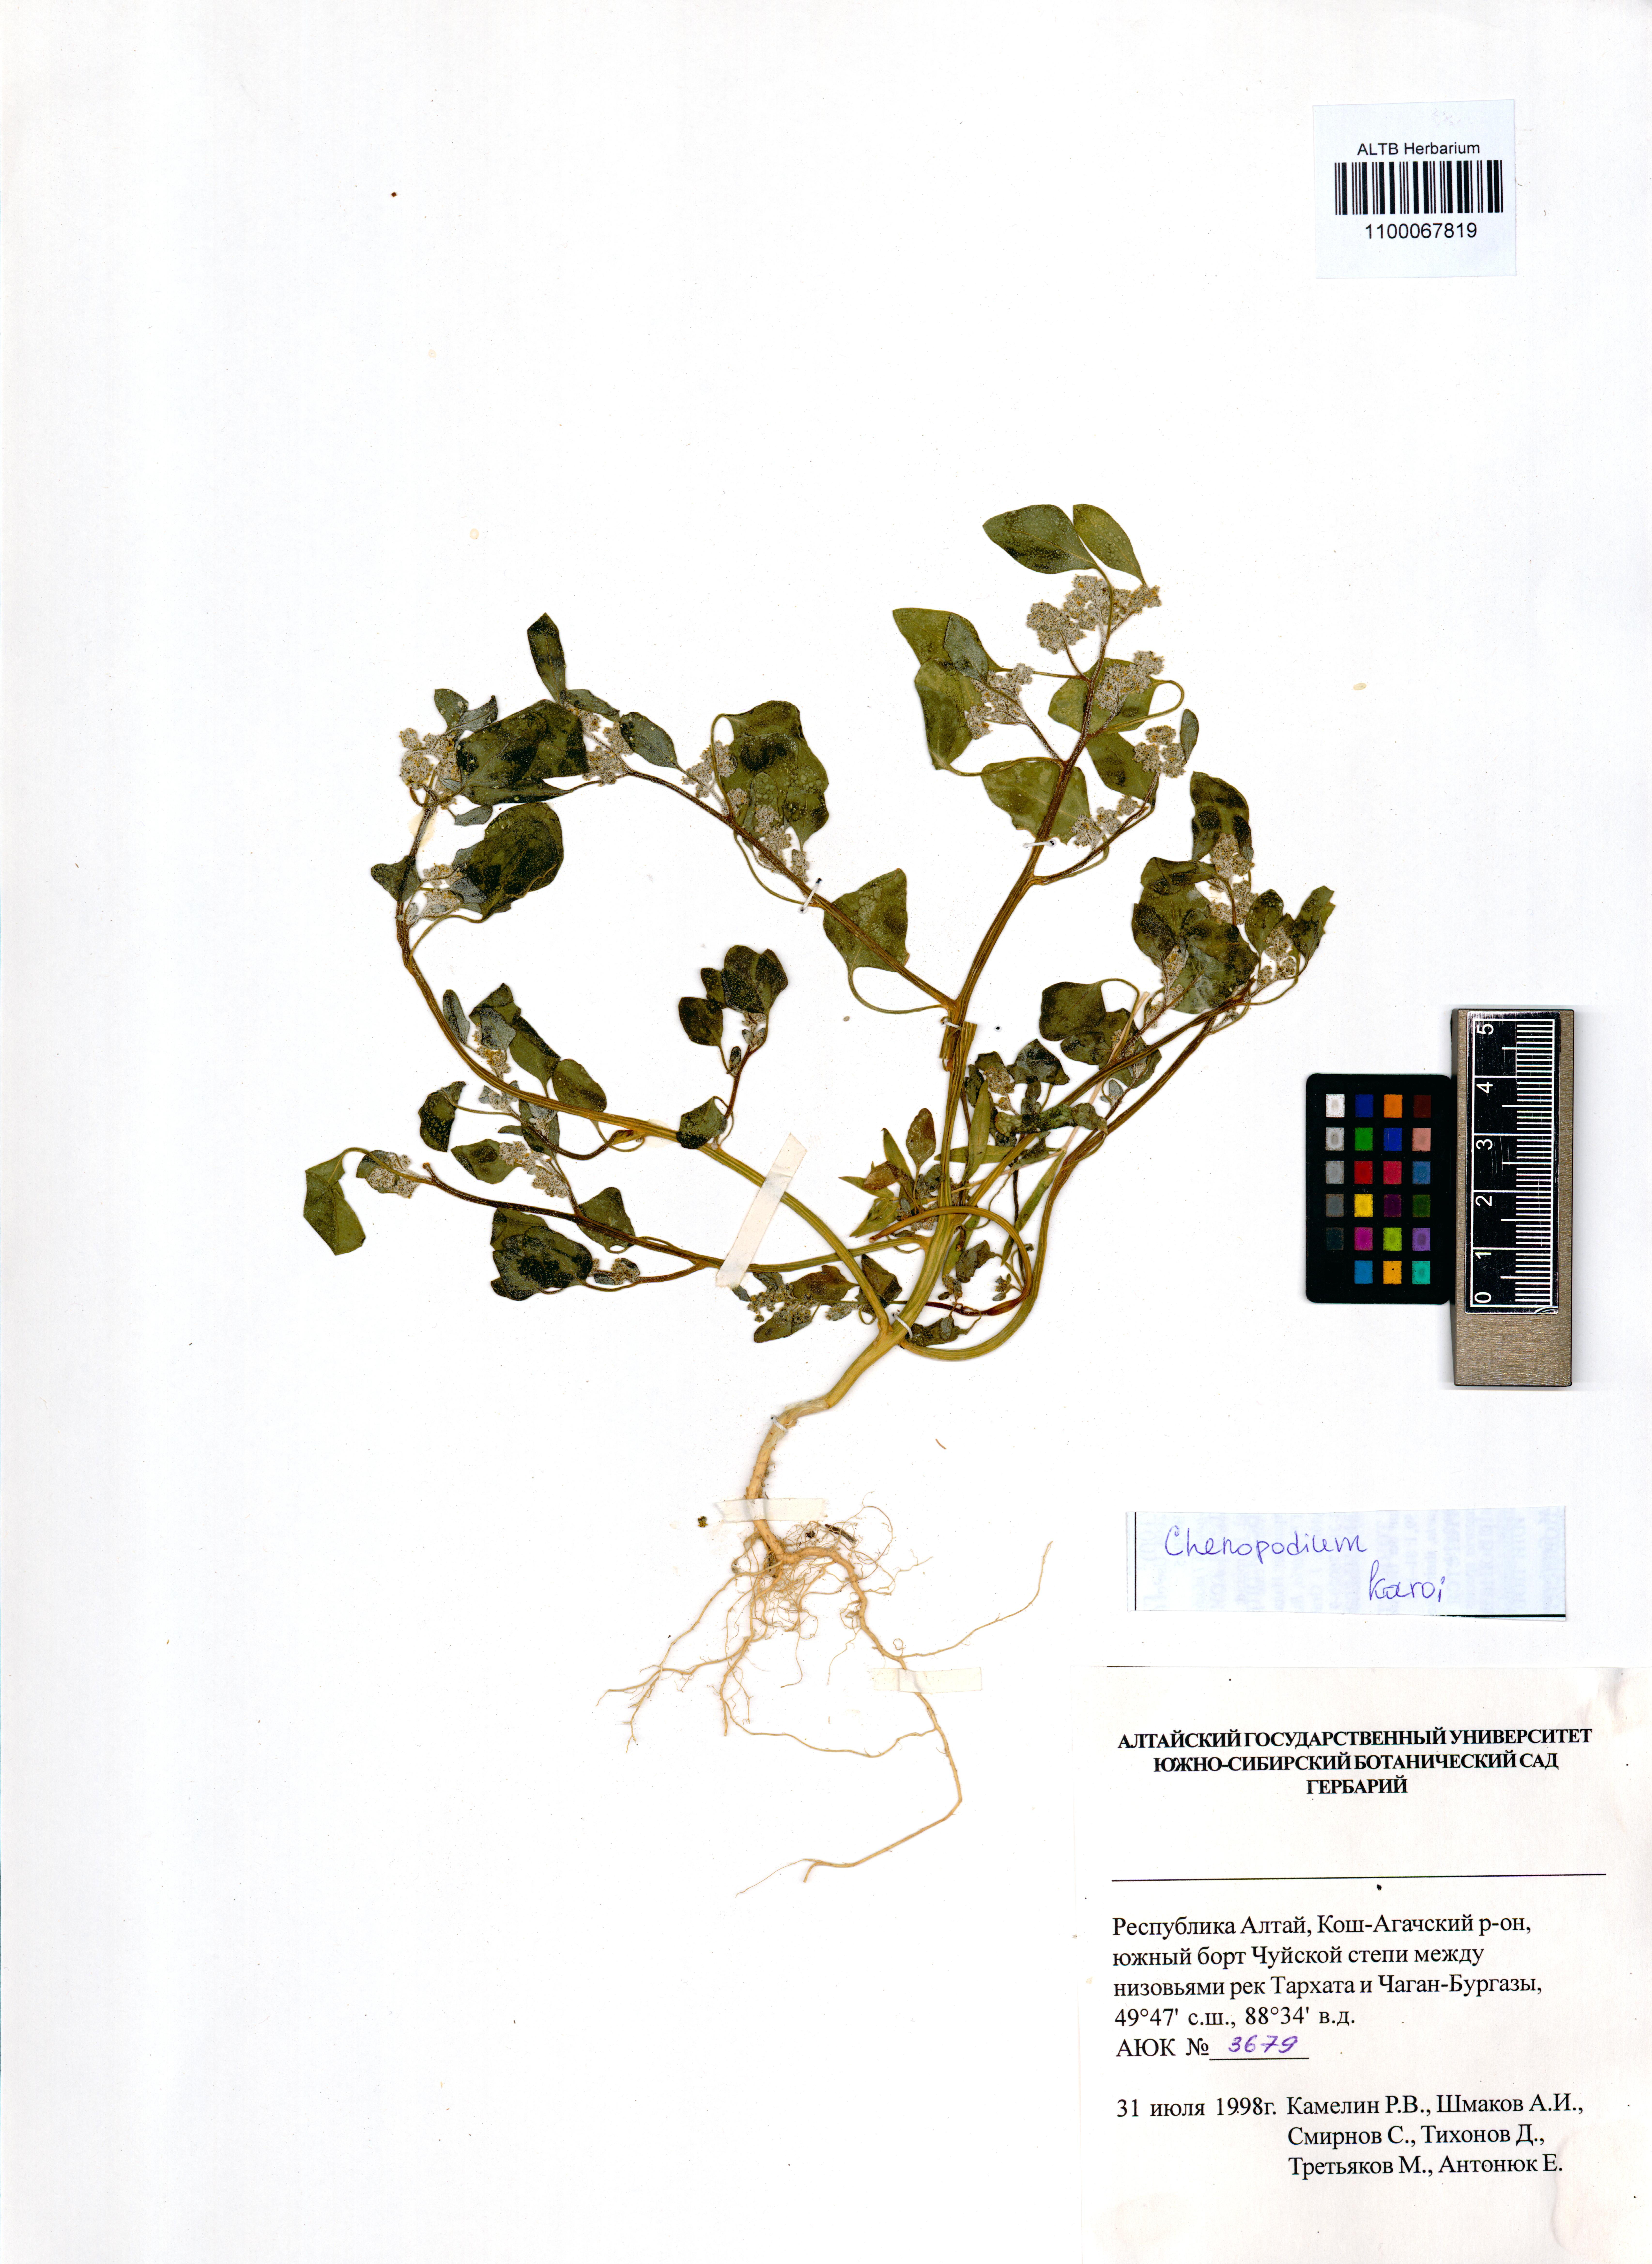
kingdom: Plantae
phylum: Tracheophyta
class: Magnoliopsida
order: Caryophyllales
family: Amaranthaceae
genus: Chenopodium
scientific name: Chenopodium karoi
